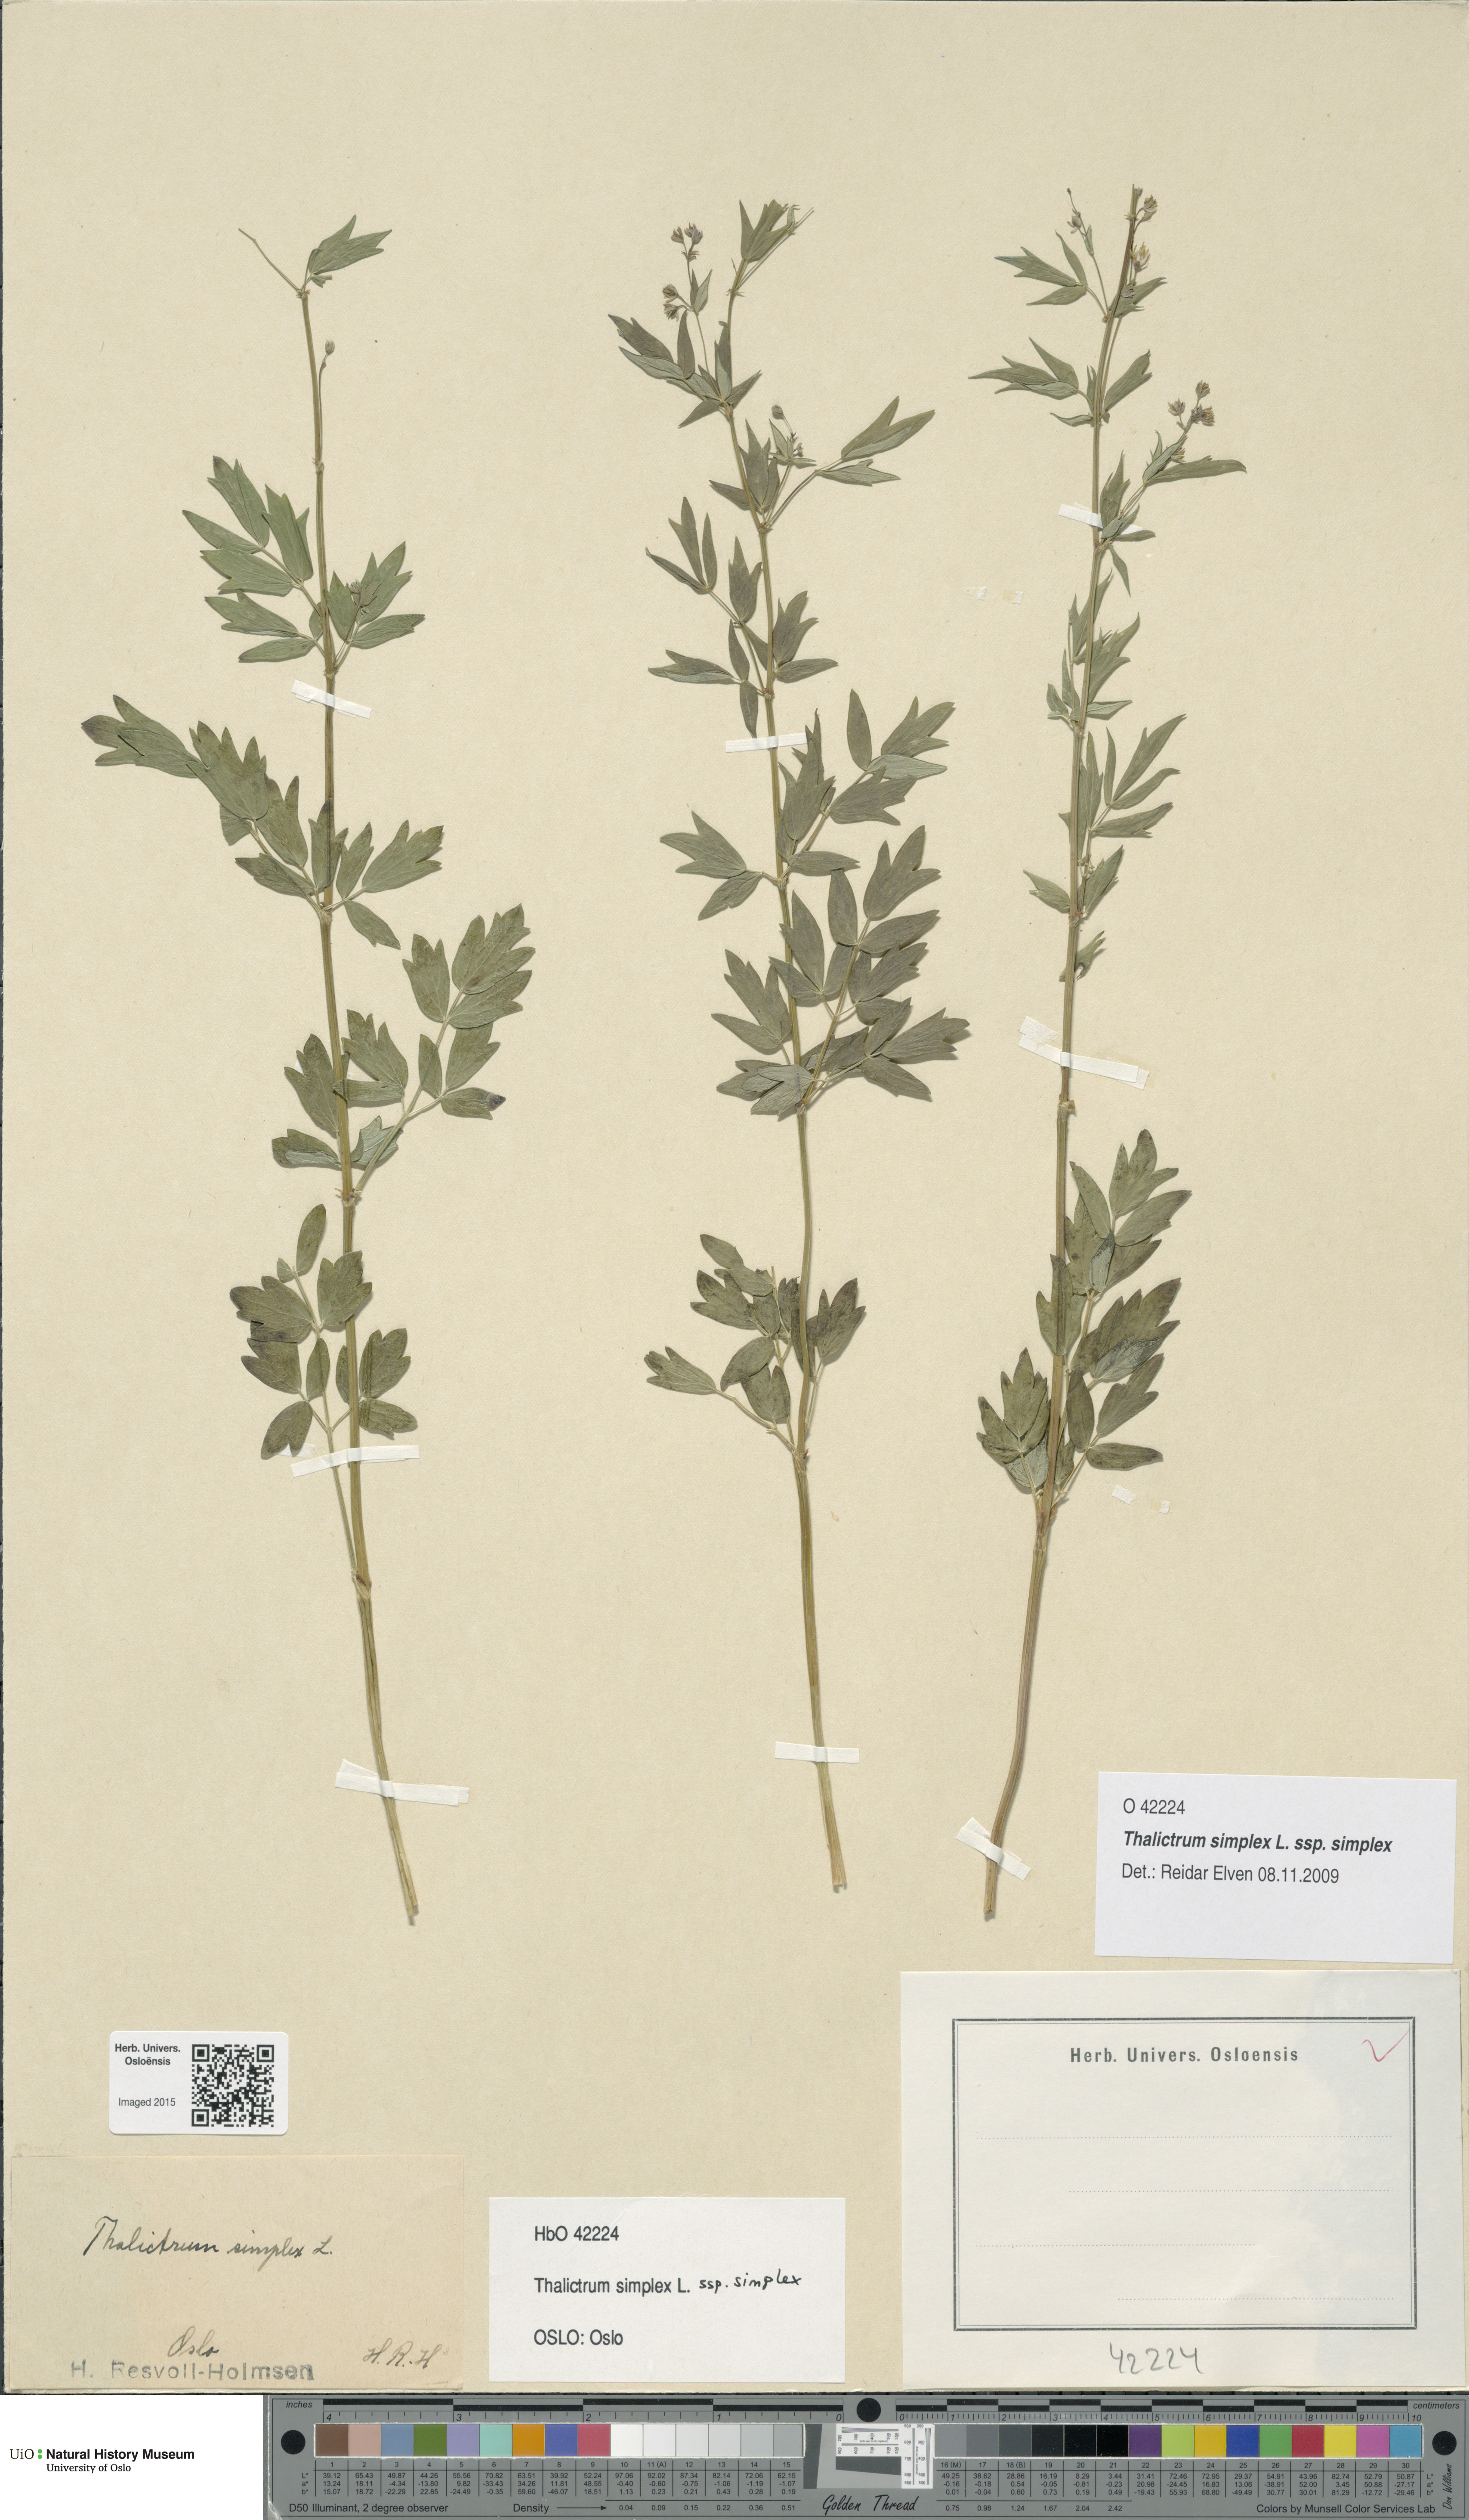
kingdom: Plantae
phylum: Tracheophyta
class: Magnoliopsida
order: Ranunculales
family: Ranunculaceae
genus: Thalictrum
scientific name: Thalictrum simplex
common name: Small meadow-rue
